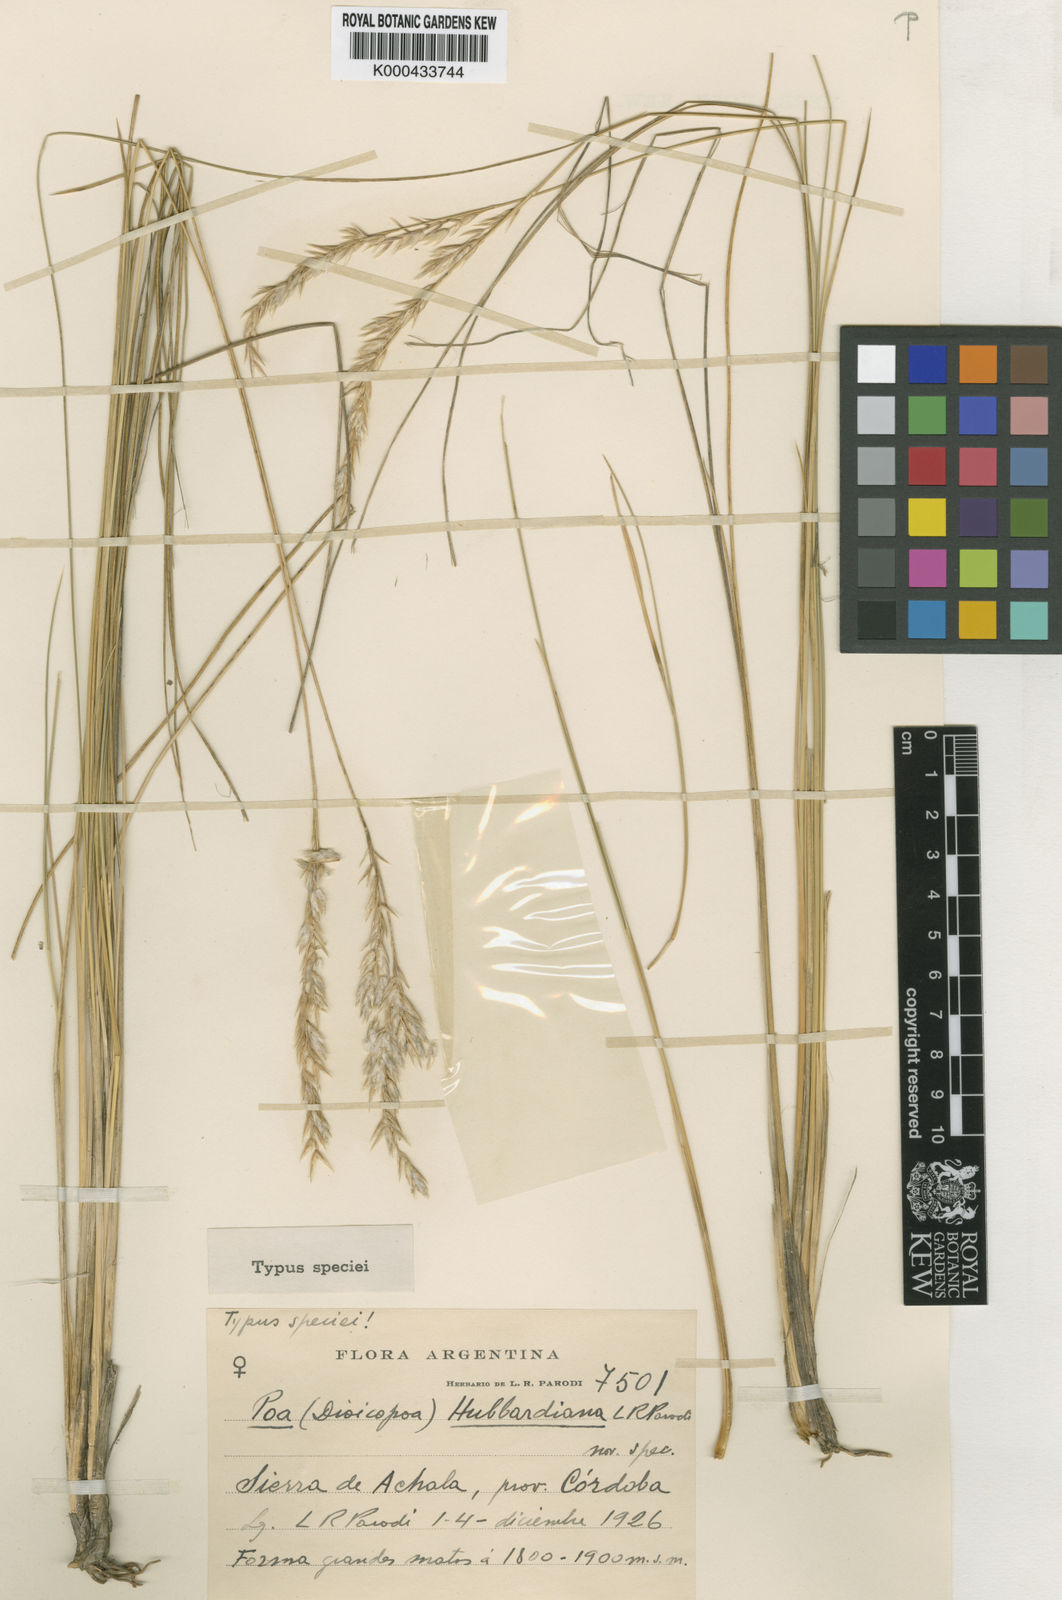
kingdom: Plantae
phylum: Tracheophyta
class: Liliopsida
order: Poales
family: Poaceae
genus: Poa
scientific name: Poa hubbardiana
